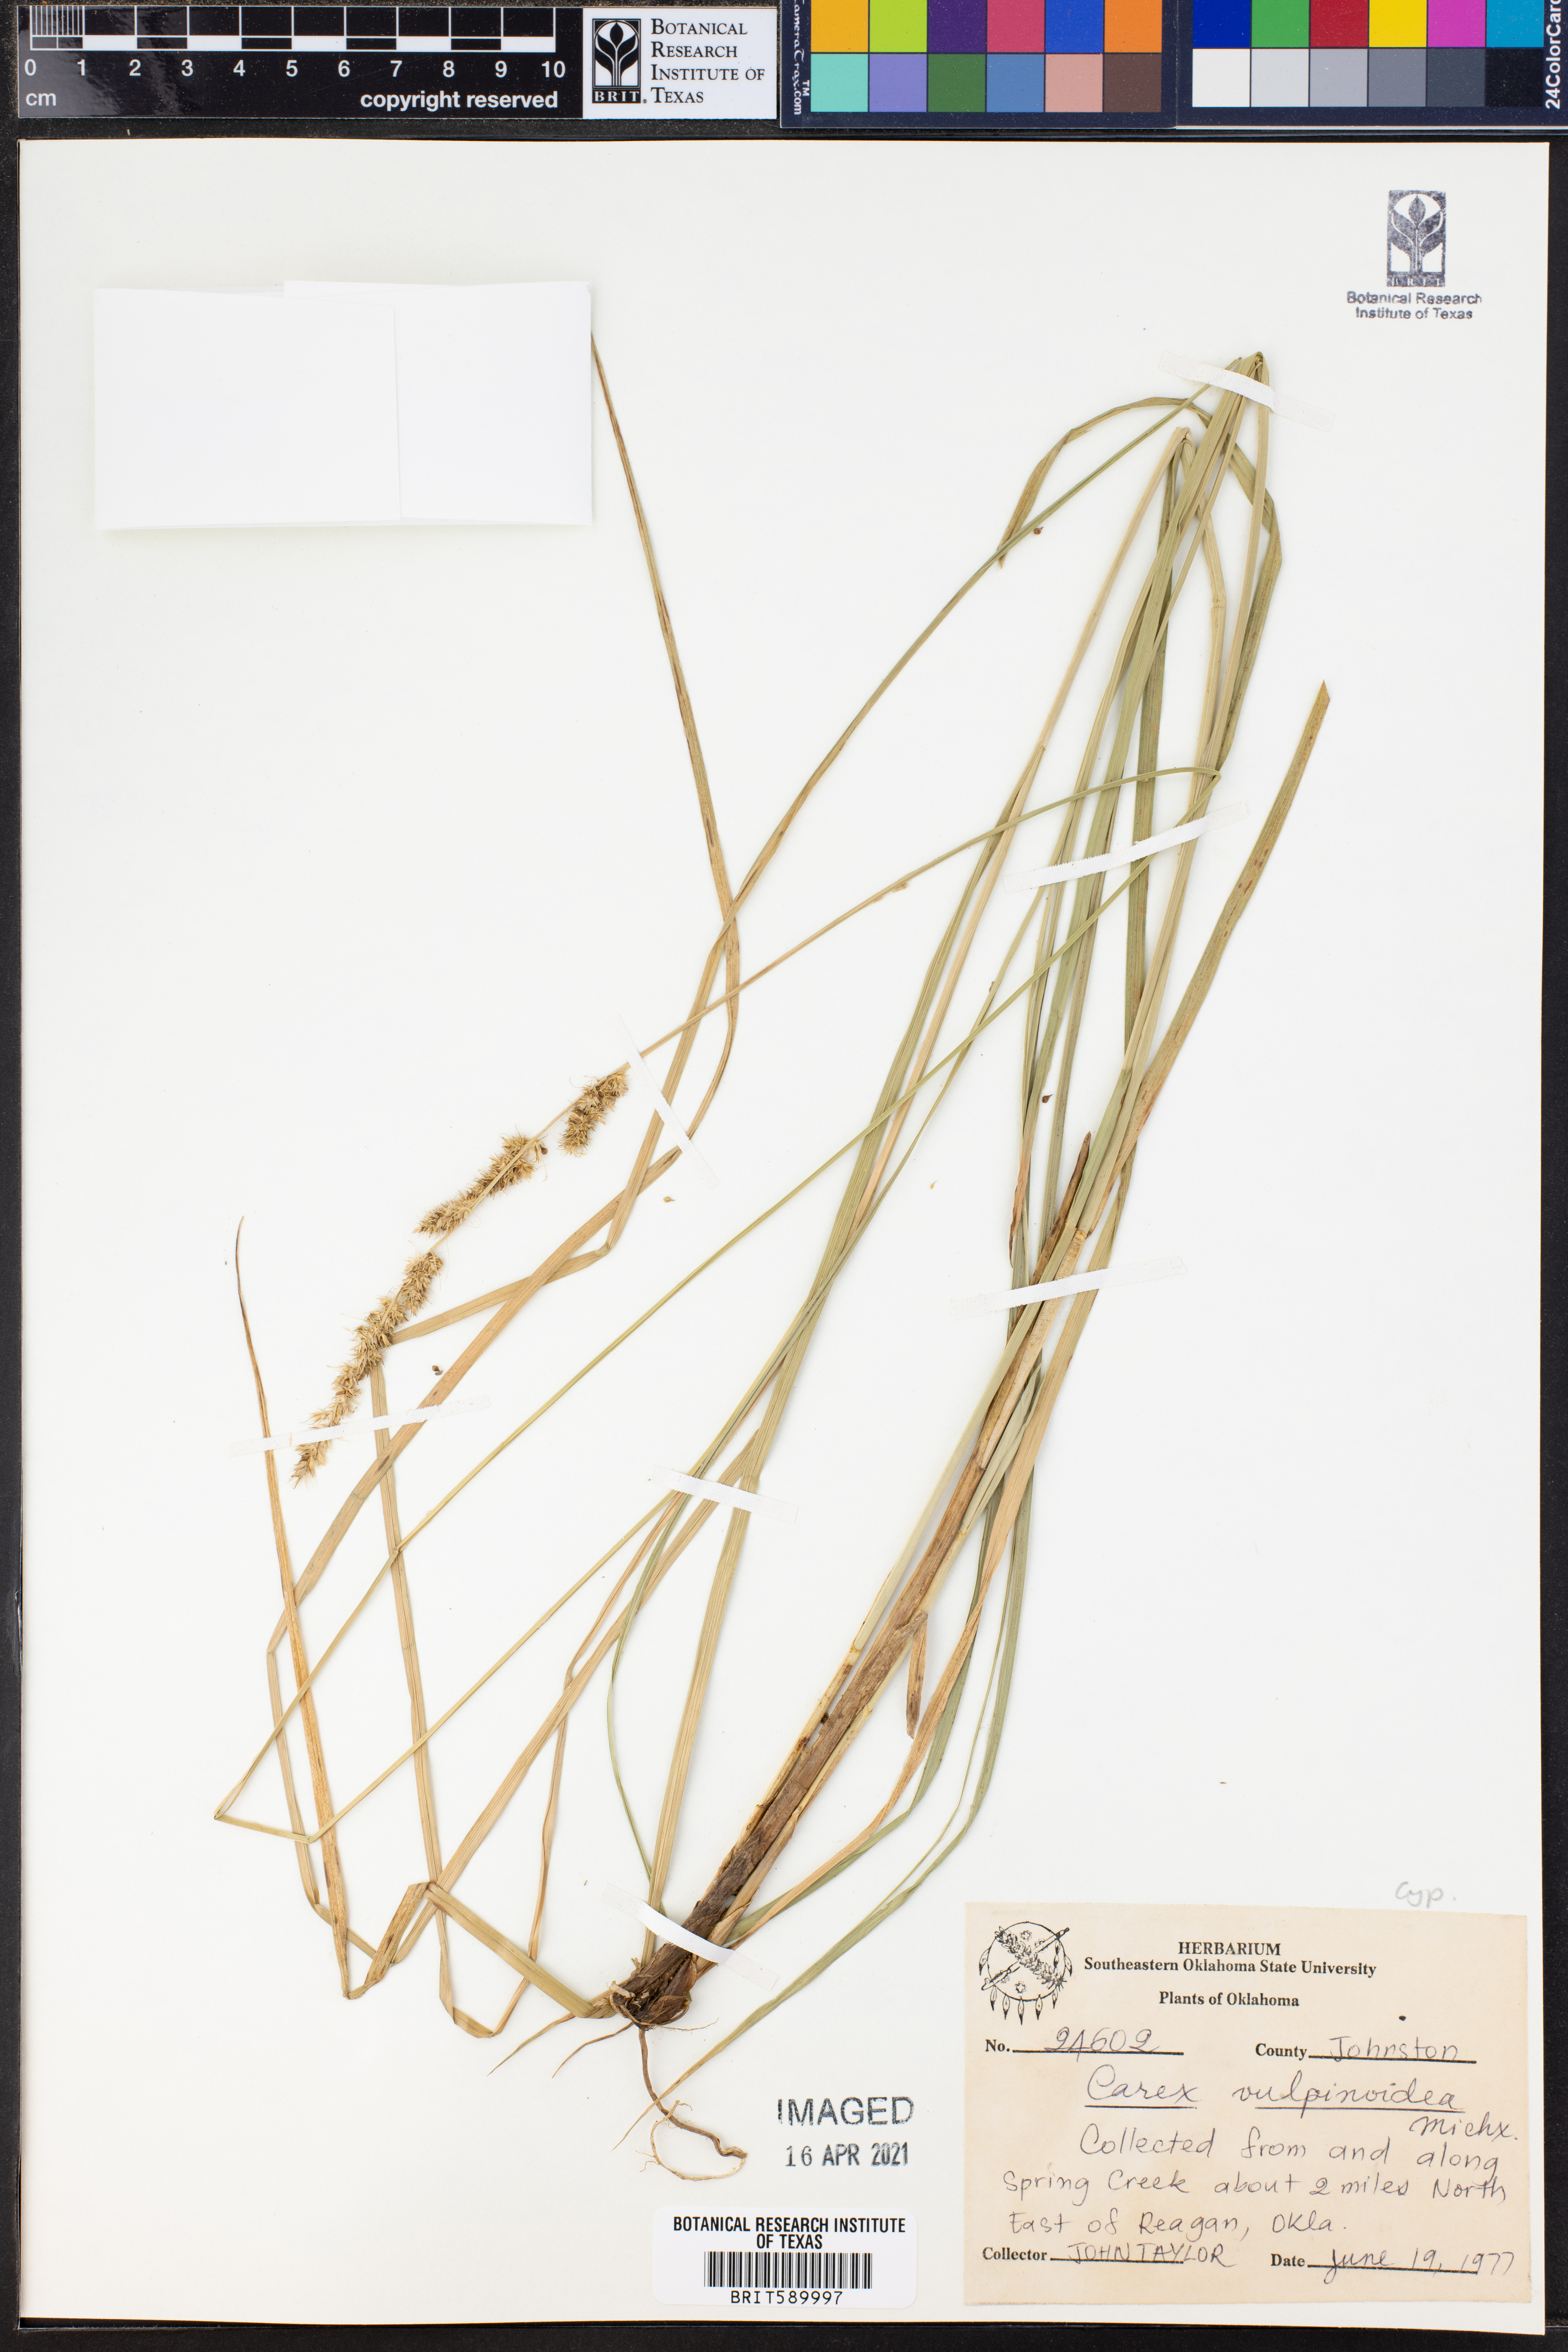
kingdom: Plantae
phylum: Tracheophyta
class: Liliopsida
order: Poales
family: Cyperaceae
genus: Carex
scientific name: Carex vulpinoidea
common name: American fox-sedge
